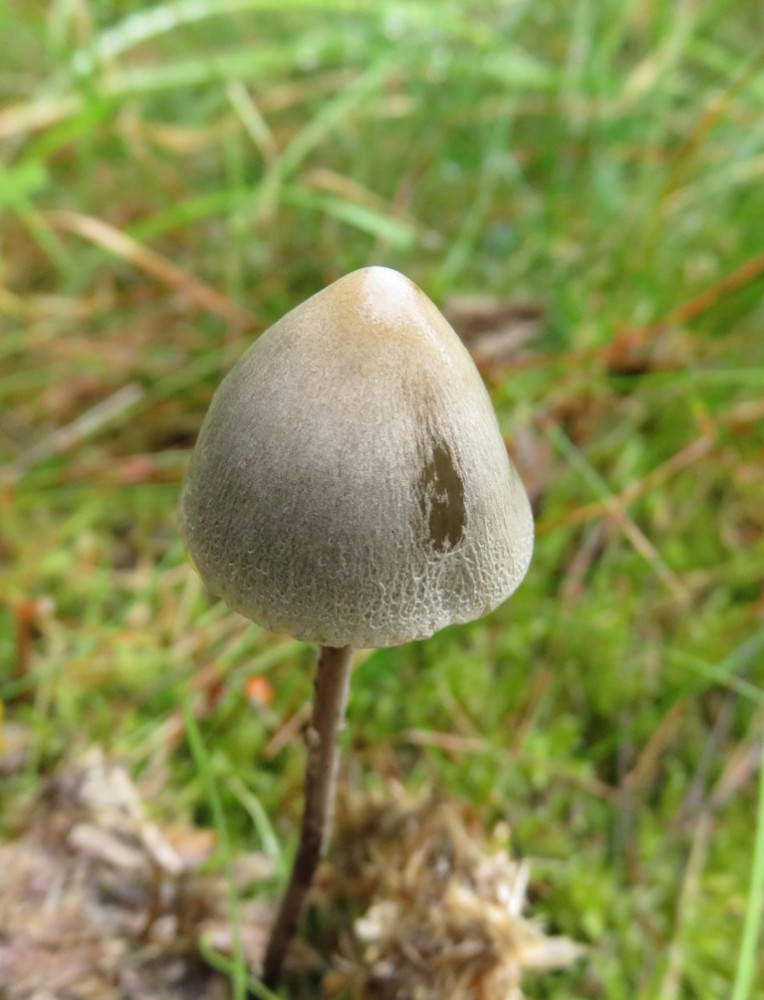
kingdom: Fungi
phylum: Basidiomycota
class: Agaricomycetes
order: Agaricales
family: Bolbitiaceae
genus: Panaeolus
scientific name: Panaeolus
